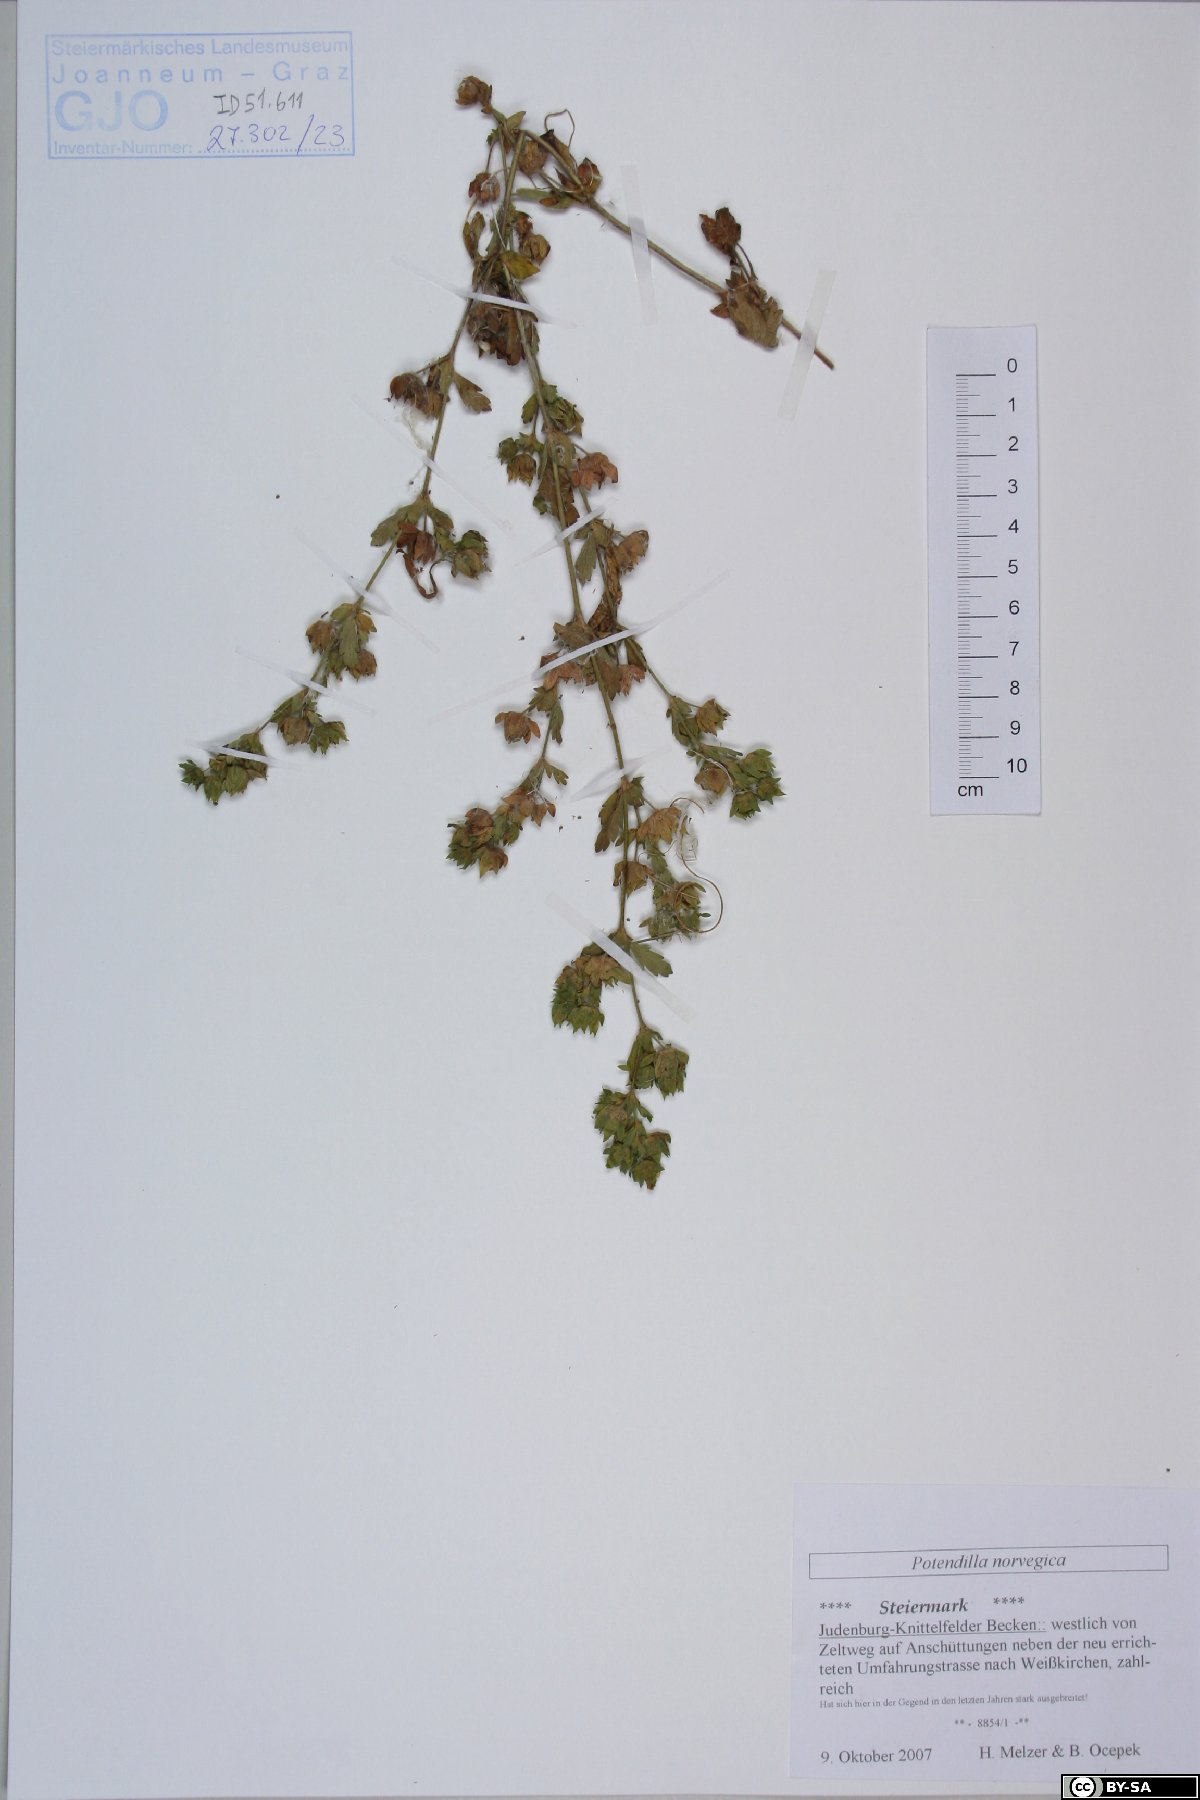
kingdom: Plantae
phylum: Tracheophyta
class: Magnoliopsida
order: Rosales
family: Rosaceae
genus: Potentilla
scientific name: Potentilla norvegica
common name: Ternate-leaved cinquefoil
